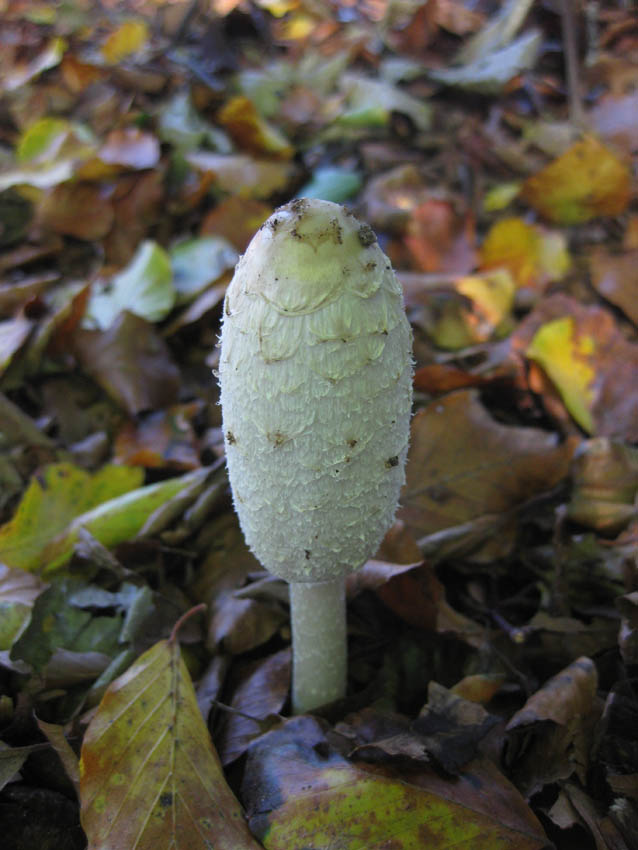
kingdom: Fungi
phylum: Basidiomycota
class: Agaricomycetes
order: Agaricales
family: Agaricaceae
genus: Coprinus
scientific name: Coprinus comatus
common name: stor parykhat
